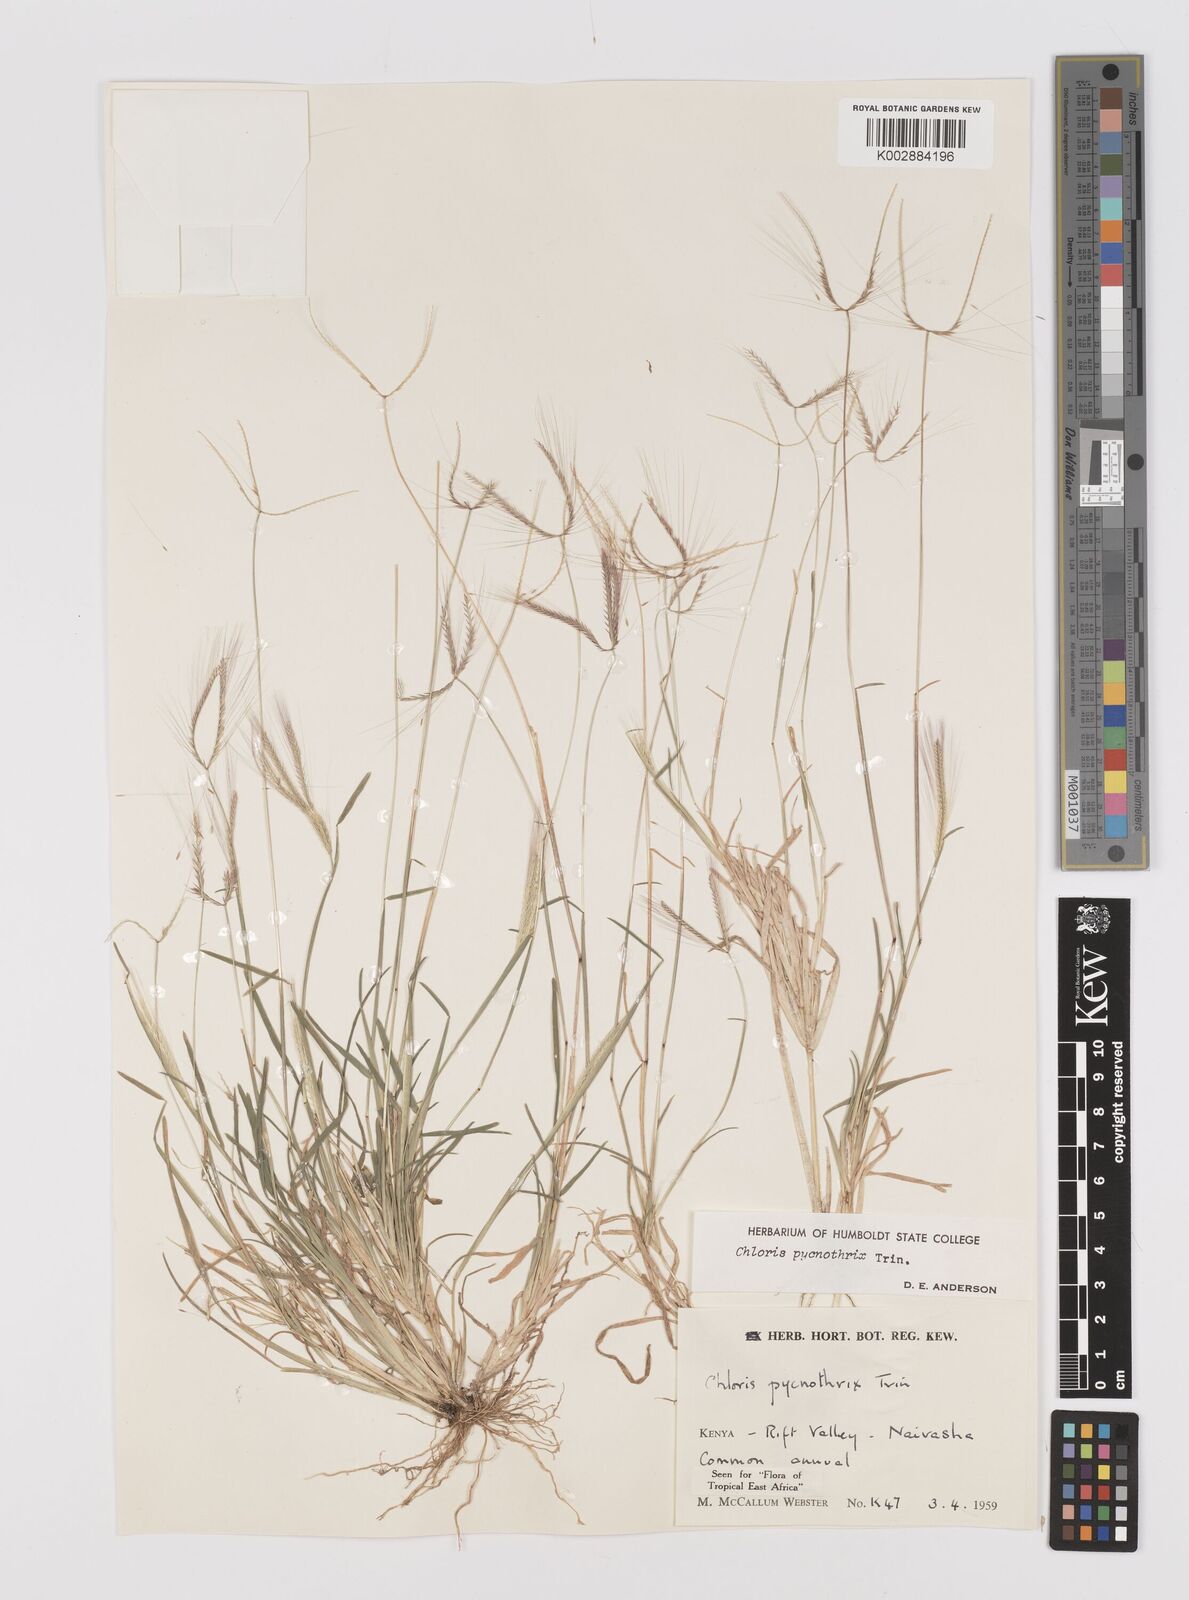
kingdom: Plantae
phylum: Tracheophyta
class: Liliopsida
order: Poales
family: Poaceae
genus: Chloris
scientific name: Chloris pycnothrix
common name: Spiderweb chloris
